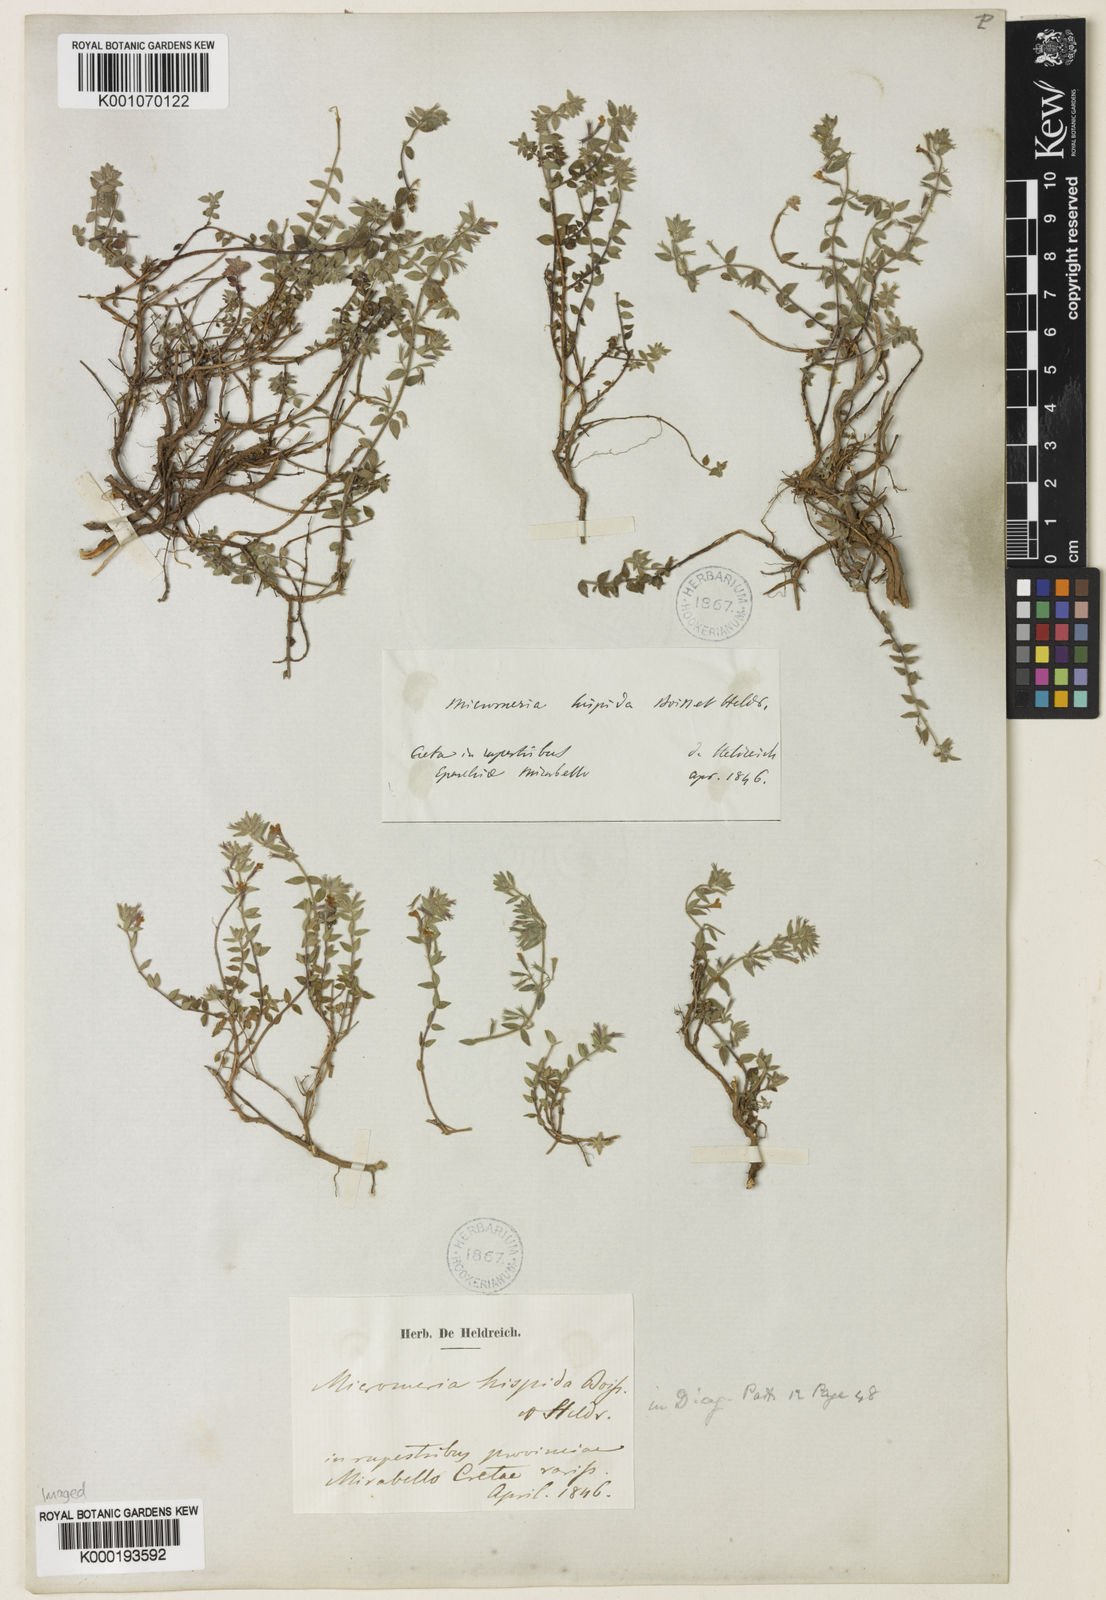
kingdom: Plantae
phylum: Tracheophyta
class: Magnoliopsida
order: Lamiales
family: Lamiaceae
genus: Micromeria
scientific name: Micromeria hispida
